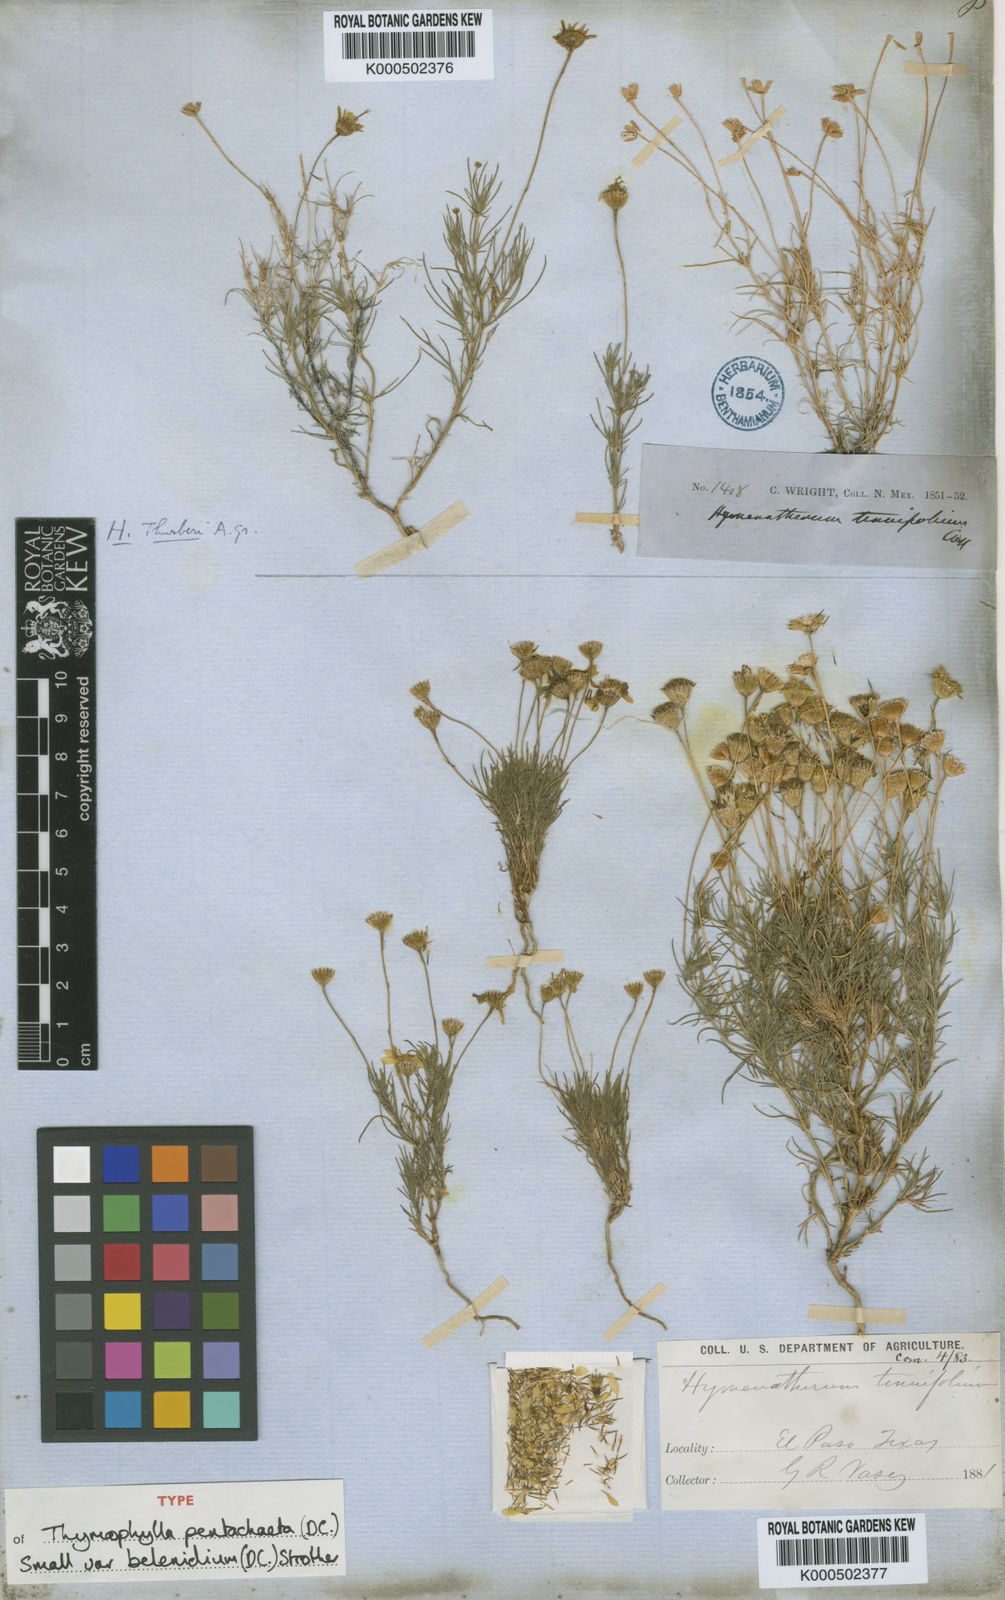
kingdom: Plantae
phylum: Tracheophyta
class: Magnoliopsida
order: Asterales
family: Asteraceae
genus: Thymophylla
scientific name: Thymophylla pentachaeta
